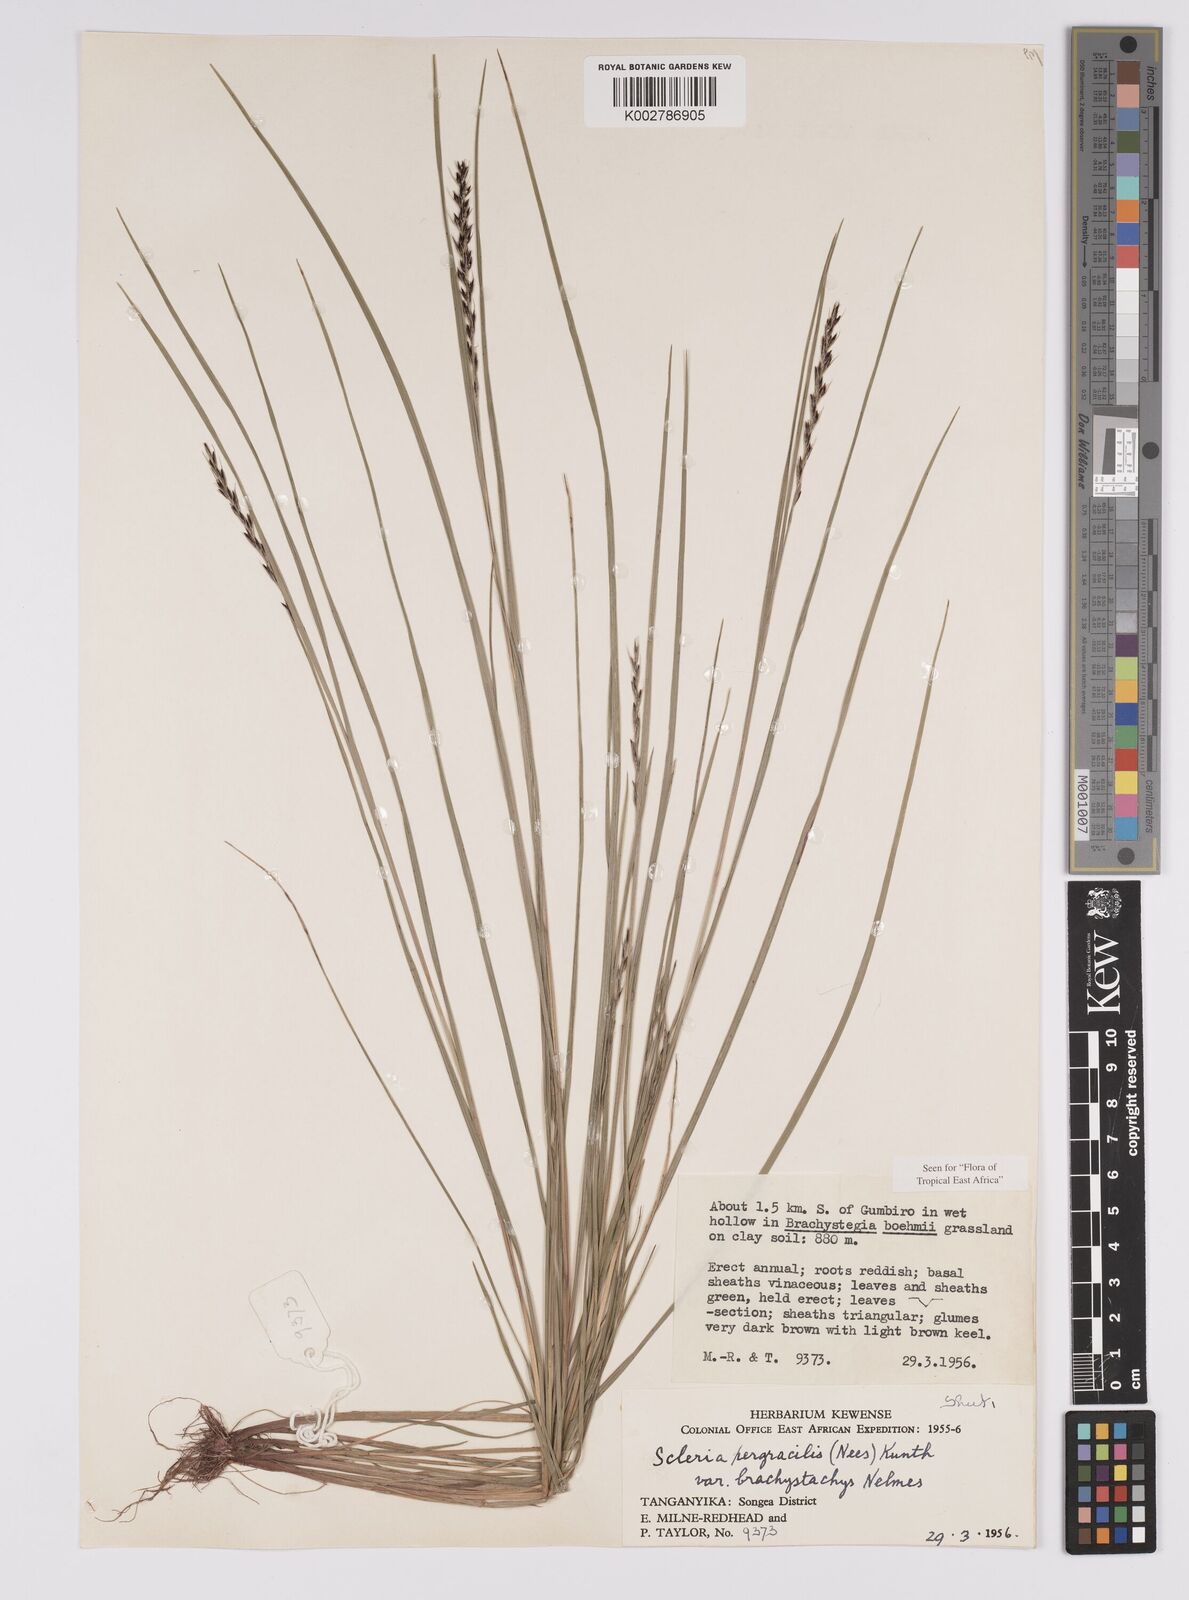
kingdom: Plantae
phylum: Tracheophyta
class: Liliopsida
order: Poales
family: Cyperaceae
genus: Scleria
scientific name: Scleria pergracilis
